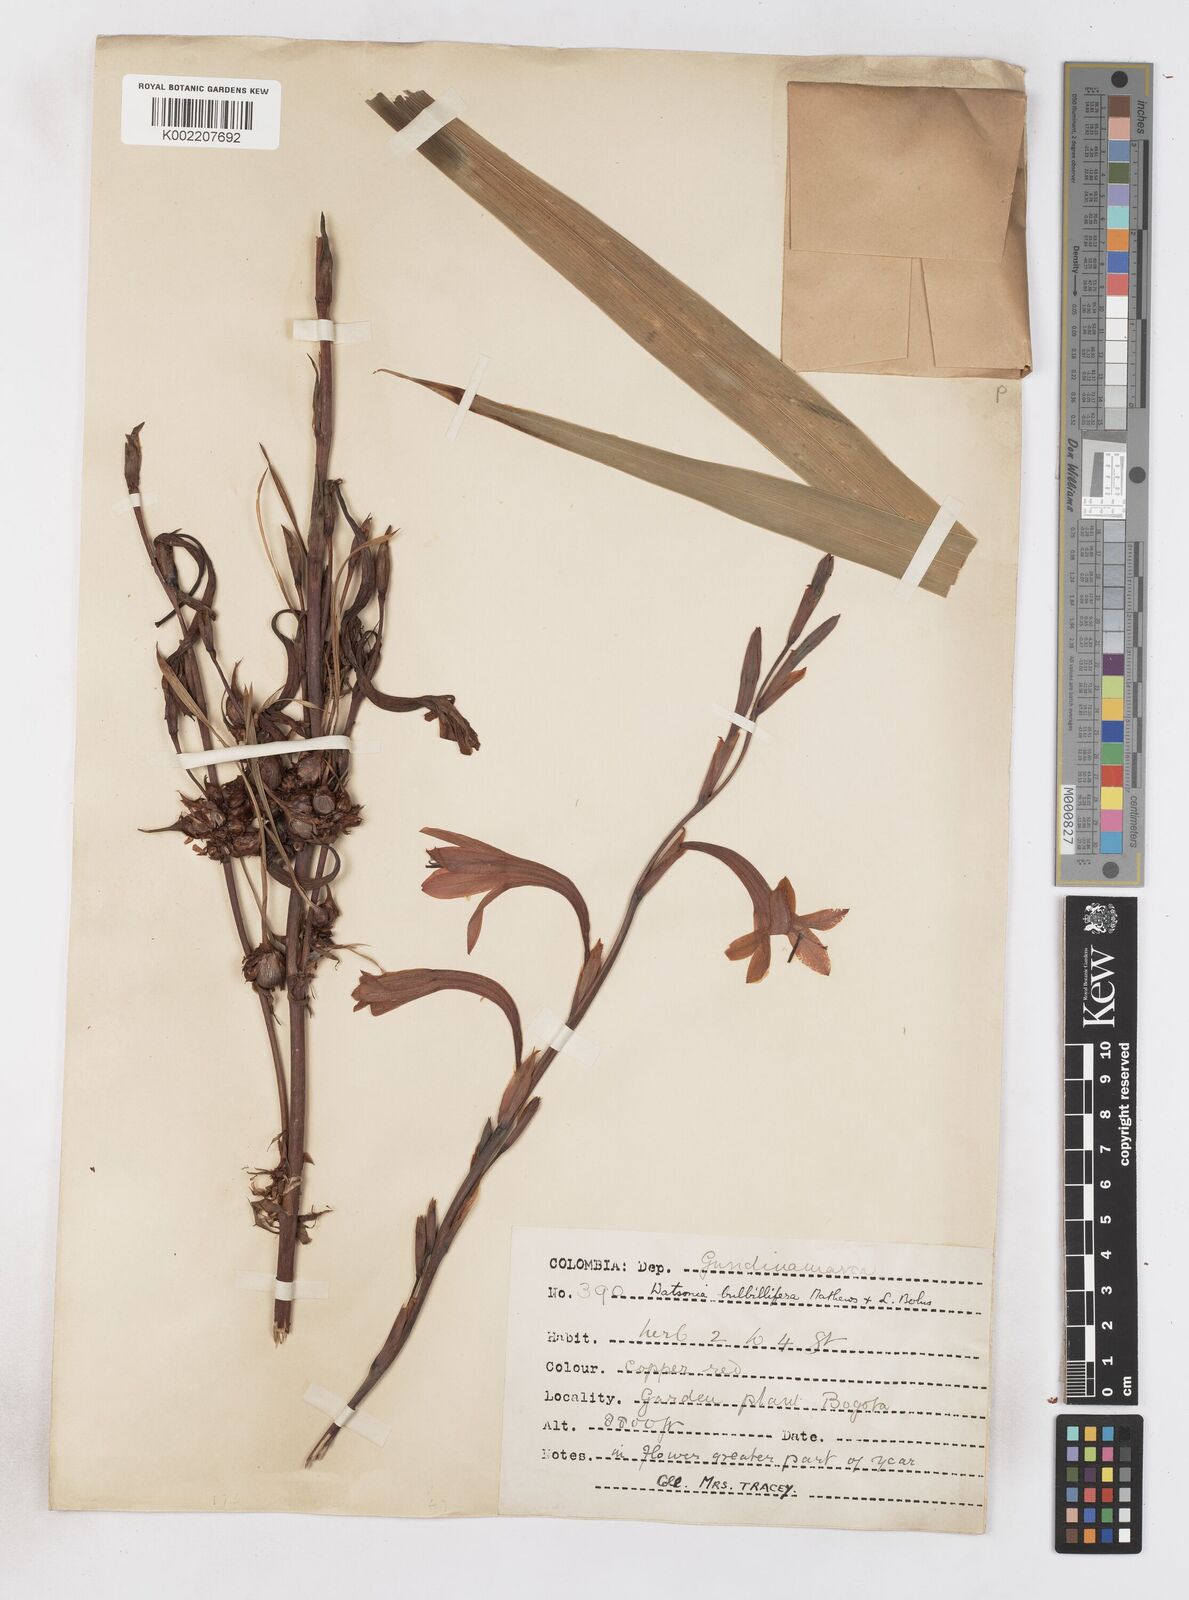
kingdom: Plantae
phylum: Tracheophyta
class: Liliopsida
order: Asparagales
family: Iridaceae
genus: Watsonia
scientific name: Watsonia meriana
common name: Bulbil bugle-lily
